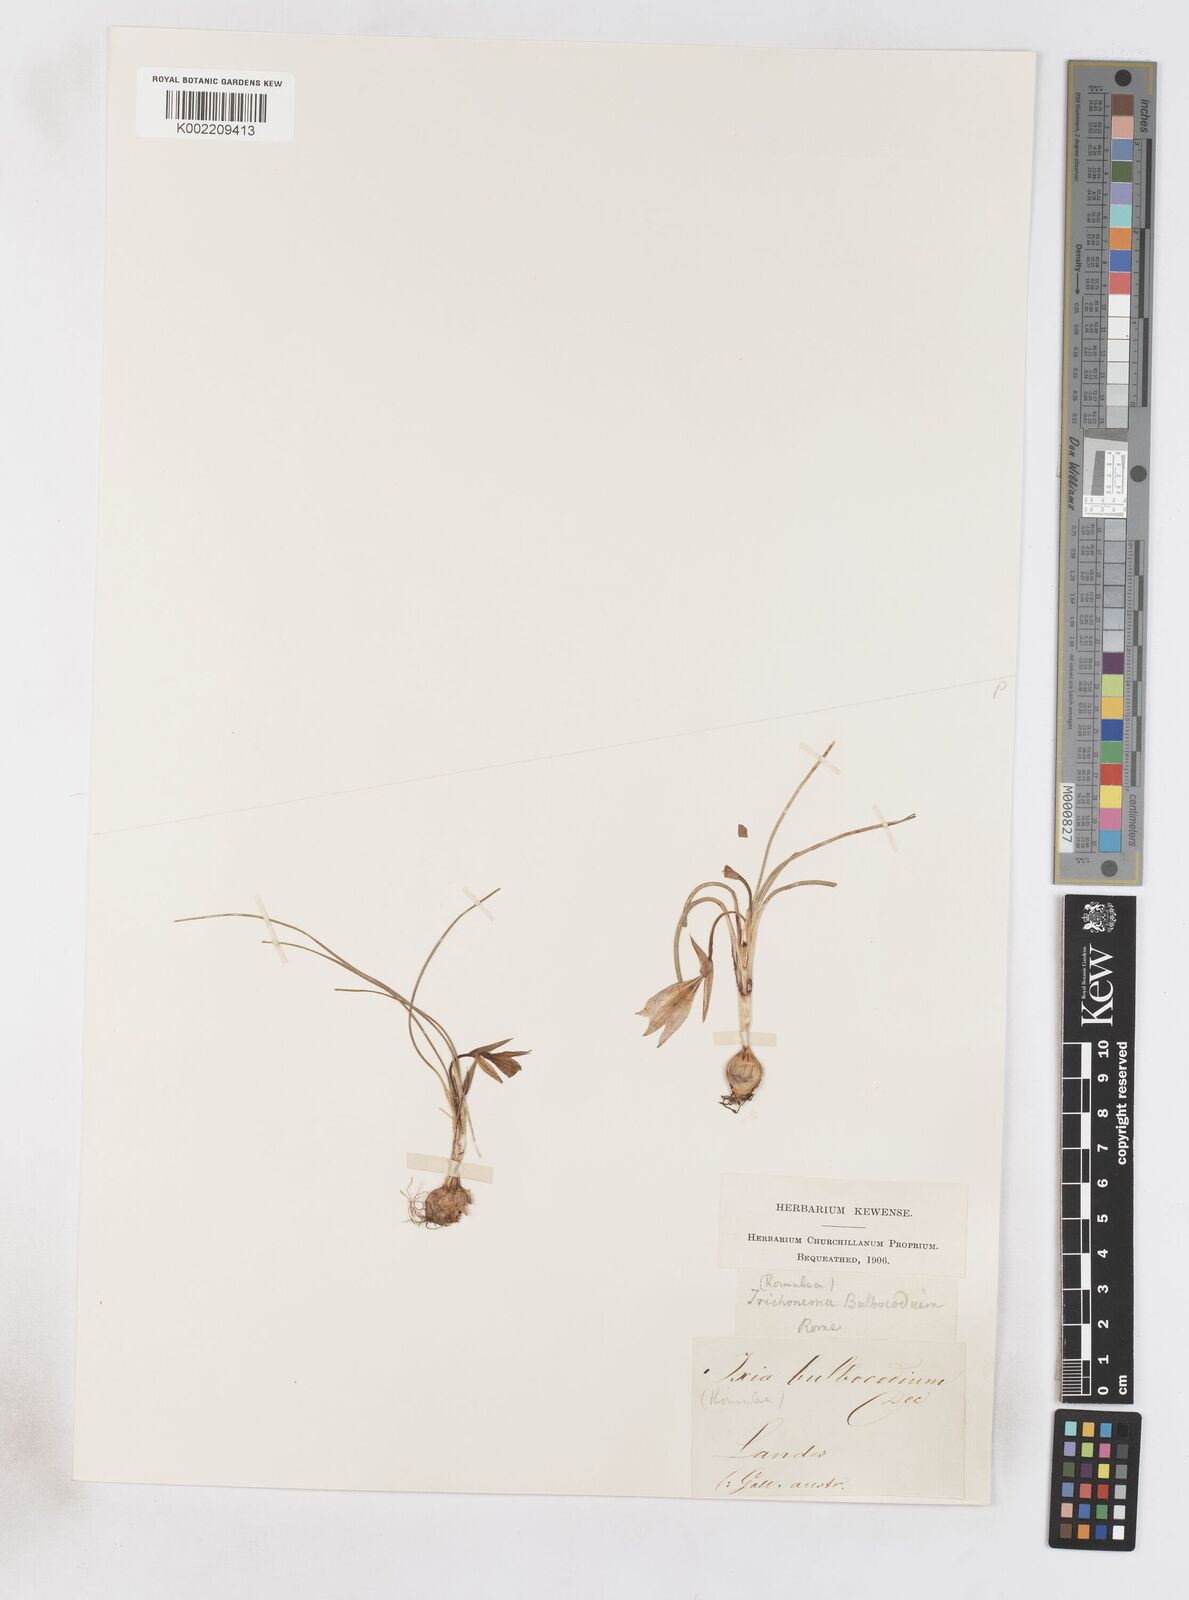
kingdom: Plantae
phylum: Tracheophyta
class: Liliopsida
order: Asparagales
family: Iridaceae
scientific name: Iridaceae
